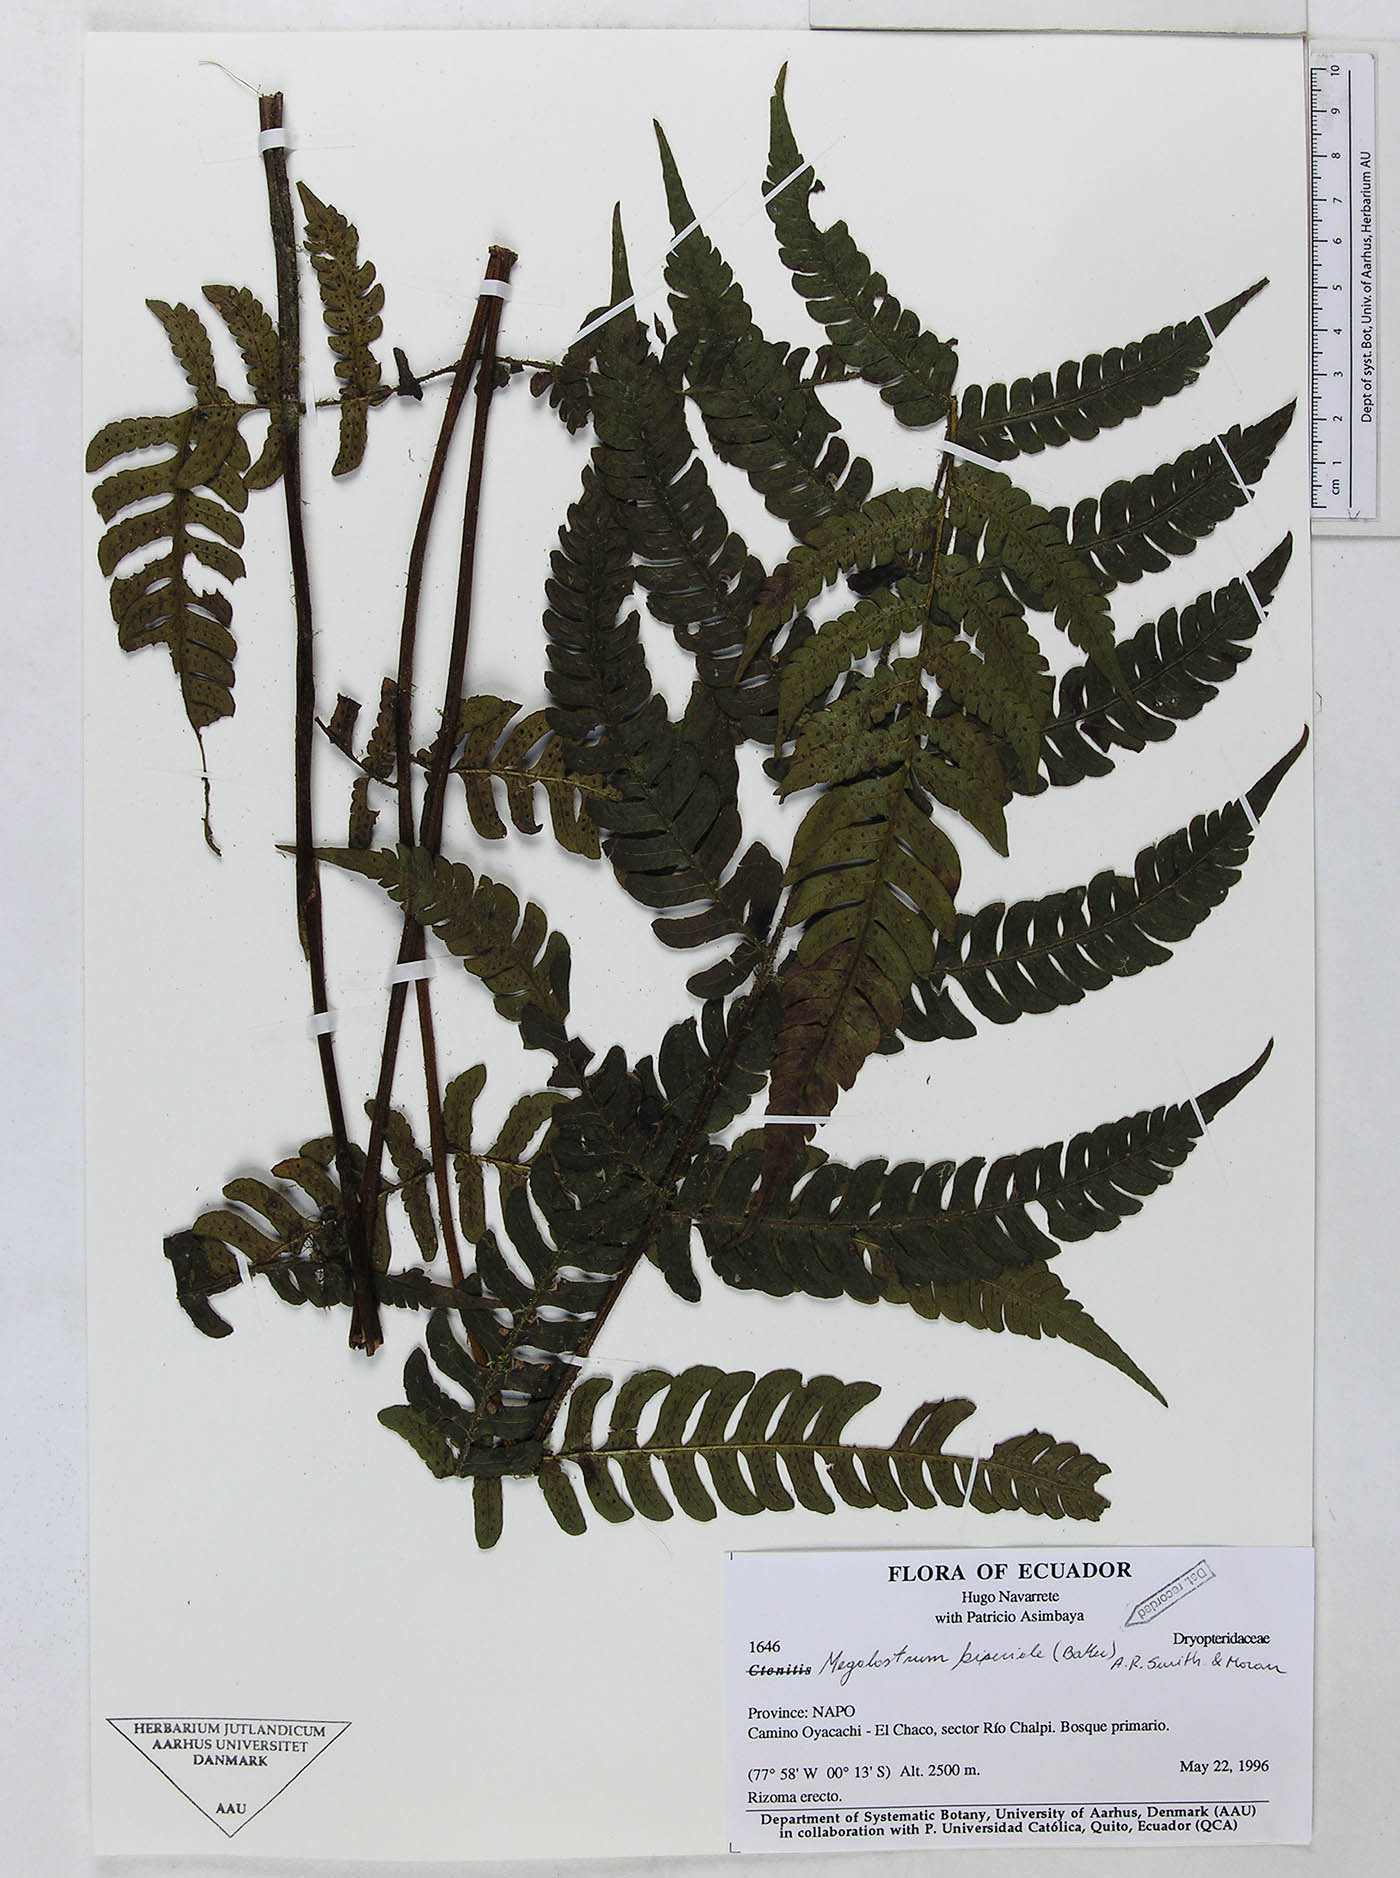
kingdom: Plantae
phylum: Tracheophyta
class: Polypodiopsida
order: Polypodiales
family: Dryopteridaceae
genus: Megalastrum
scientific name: Megalastrum biseriale
